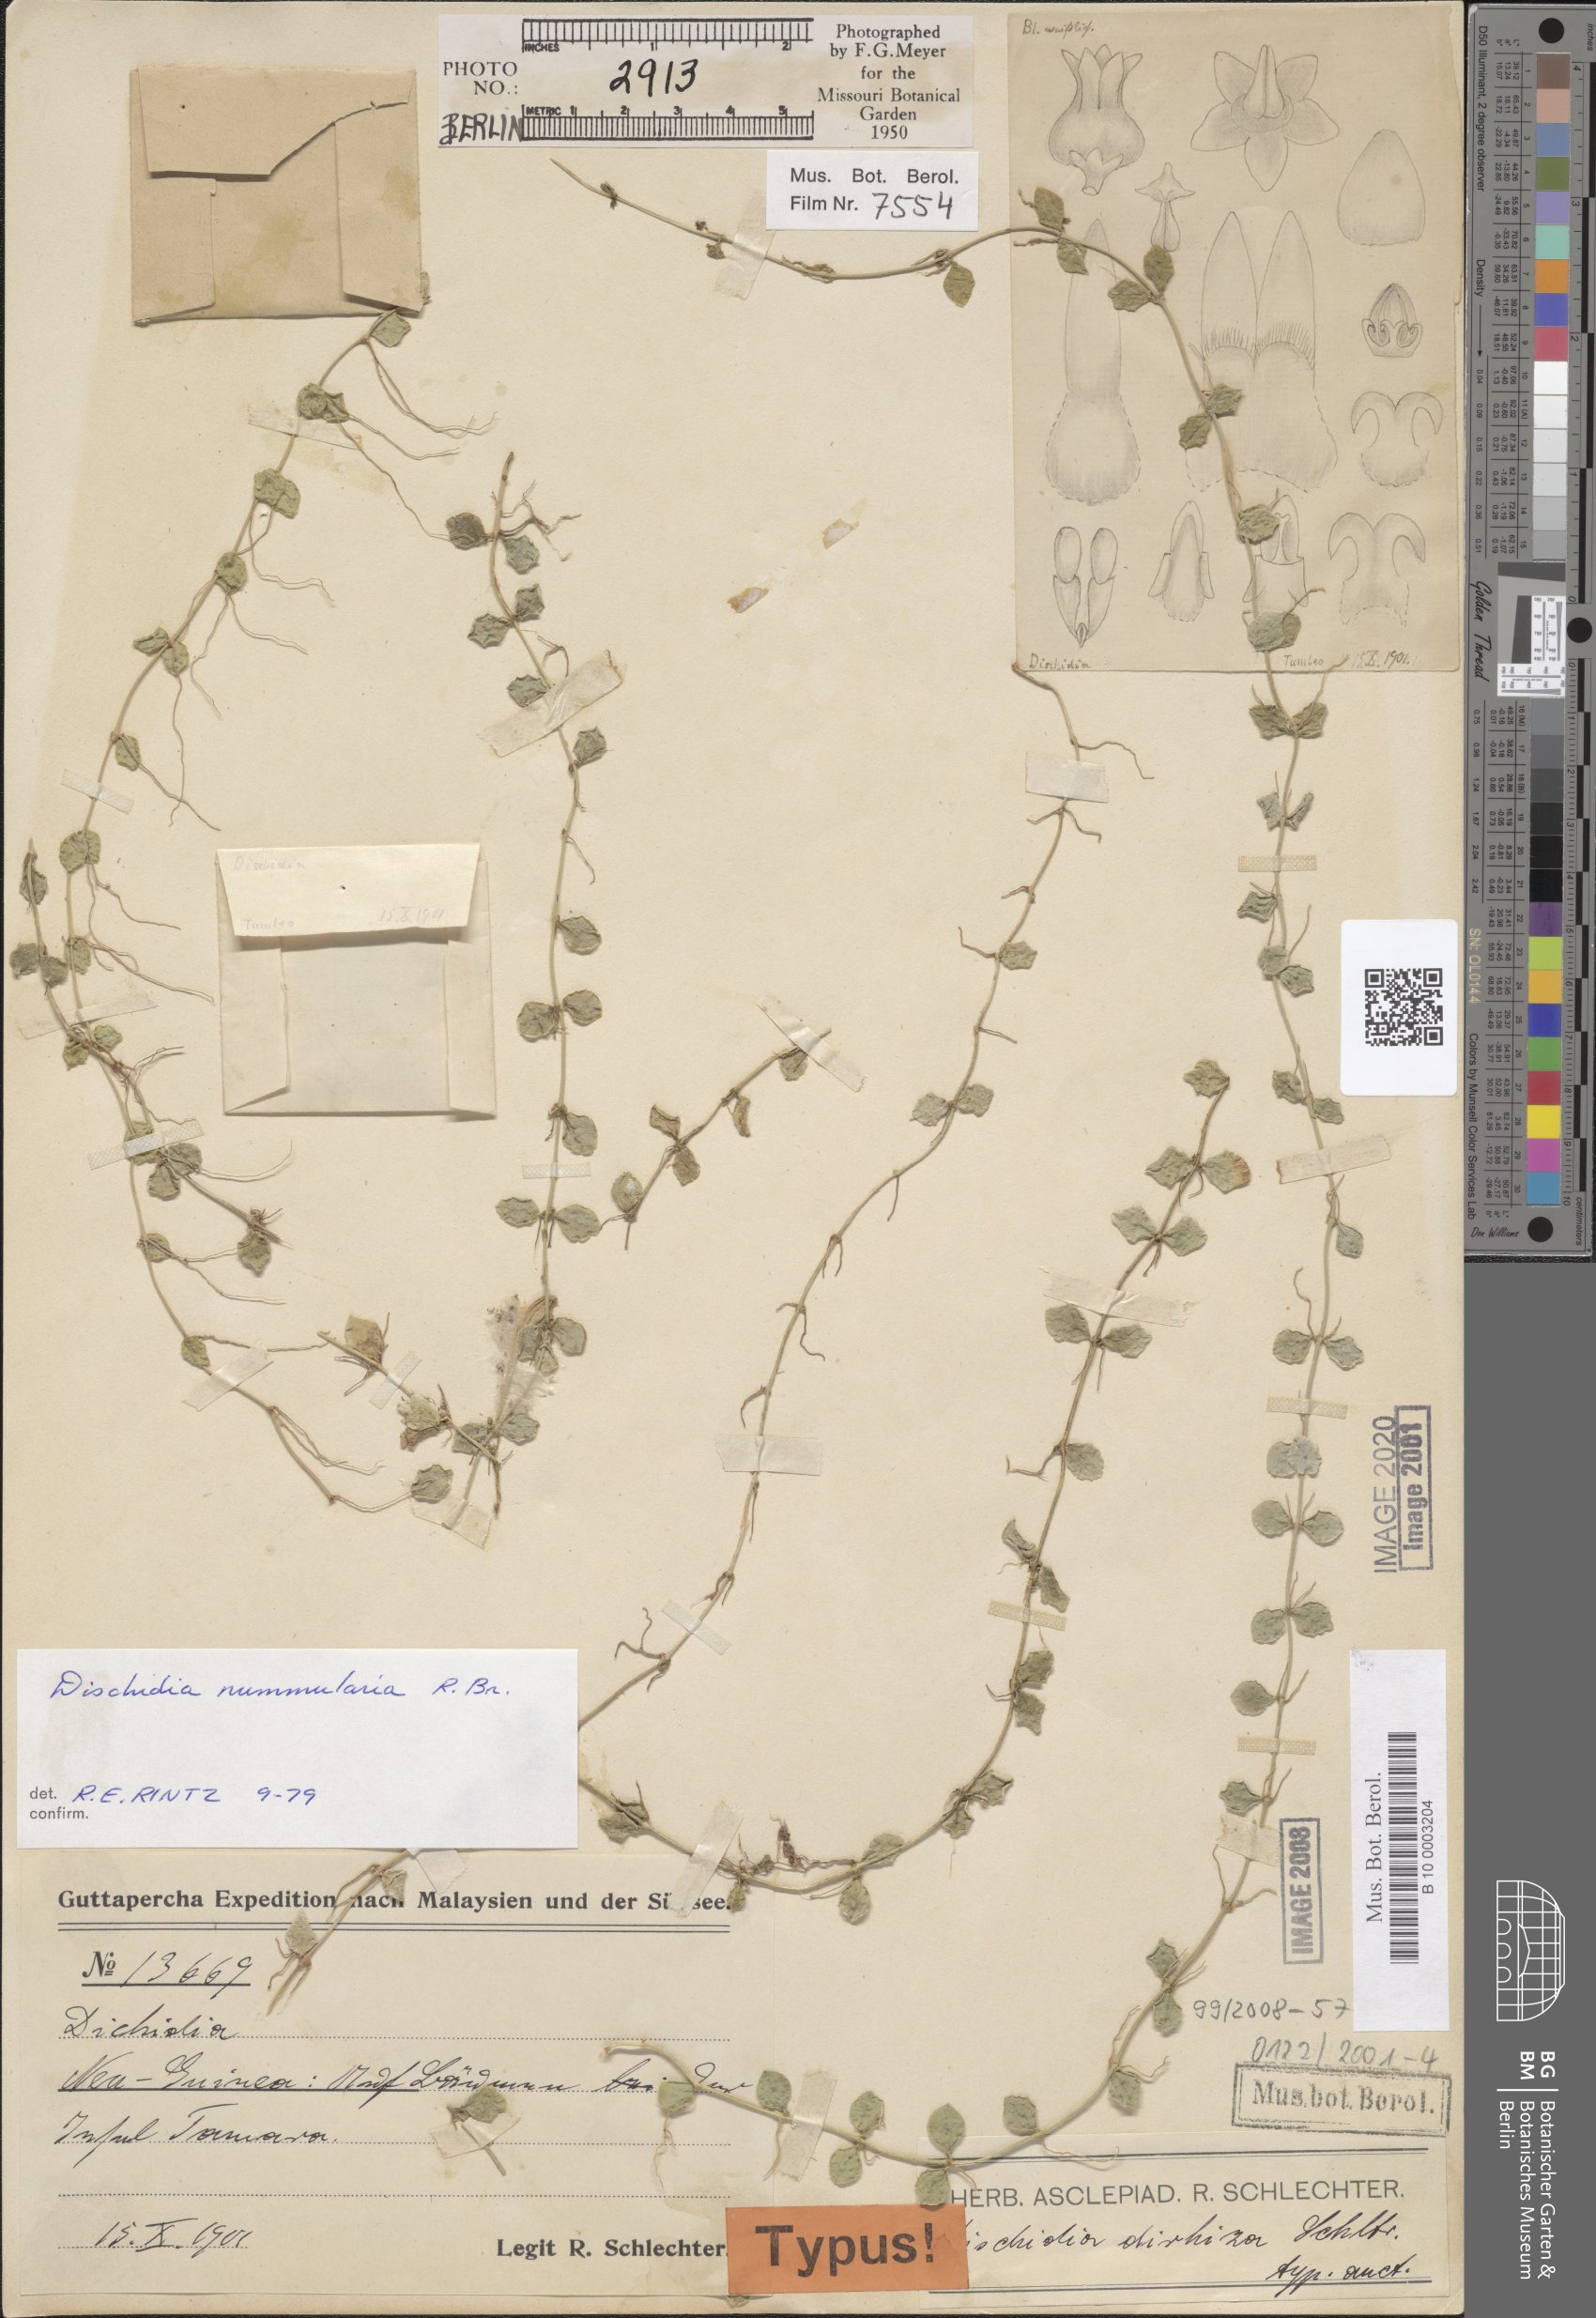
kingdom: Plantae
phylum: Tracheophyta
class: Magnoliopsida
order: Gentianales
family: Apocynaceae
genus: Dischidia
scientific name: Dischidia nummularia
